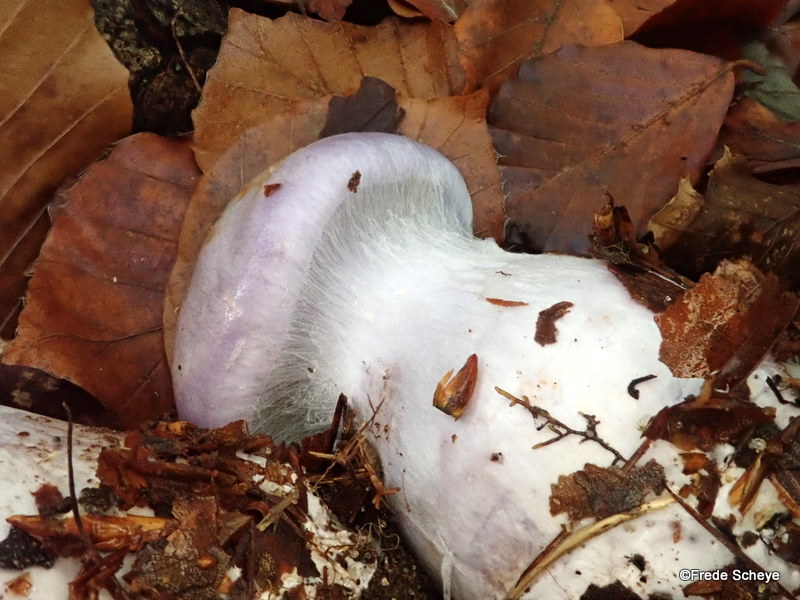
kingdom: Fungi
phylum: Basidiomycota
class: Agaricomycetes
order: Agaricales
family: Cortinariaceae
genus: Cortinarius
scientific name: Cortinarius largus
